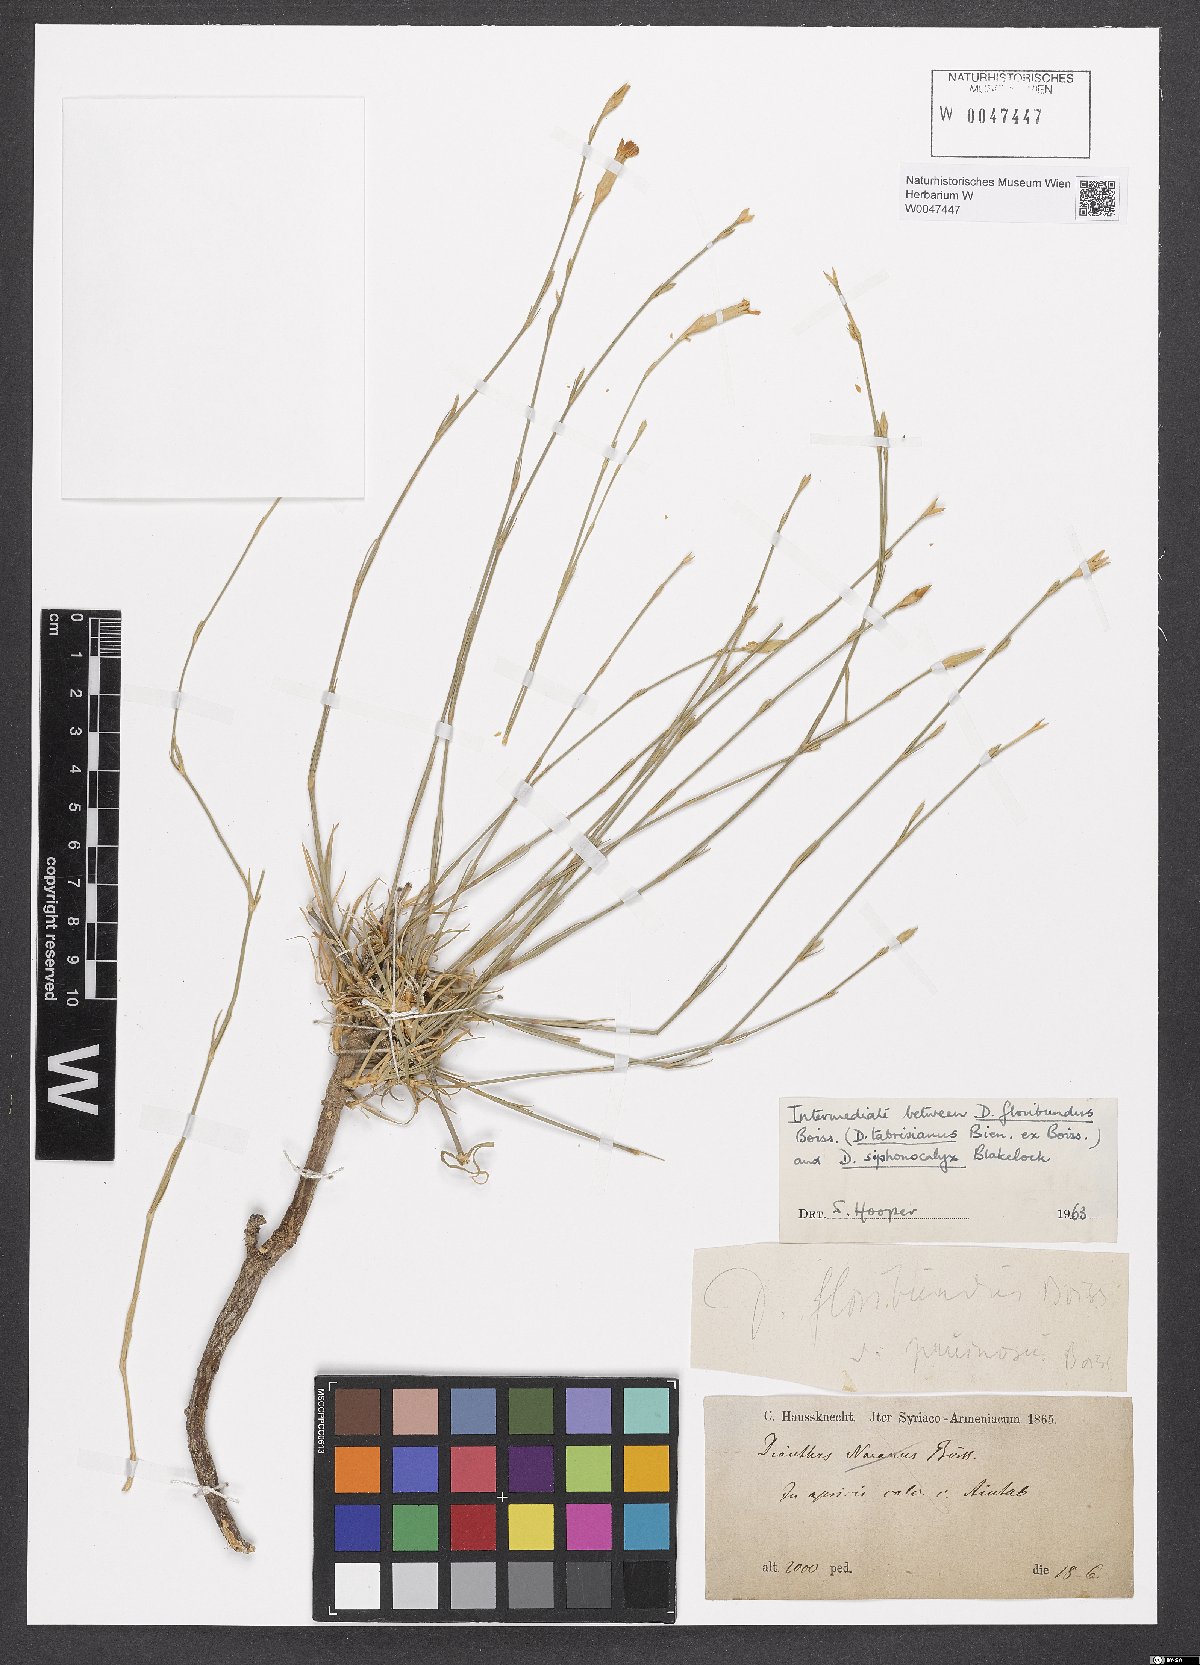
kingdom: Plantae
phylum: Tracheophyta
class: Magnoliopsida
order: Caryophyllales
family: Caryophyllaceae
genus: Dianthus
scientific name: Dianthus floribundus
